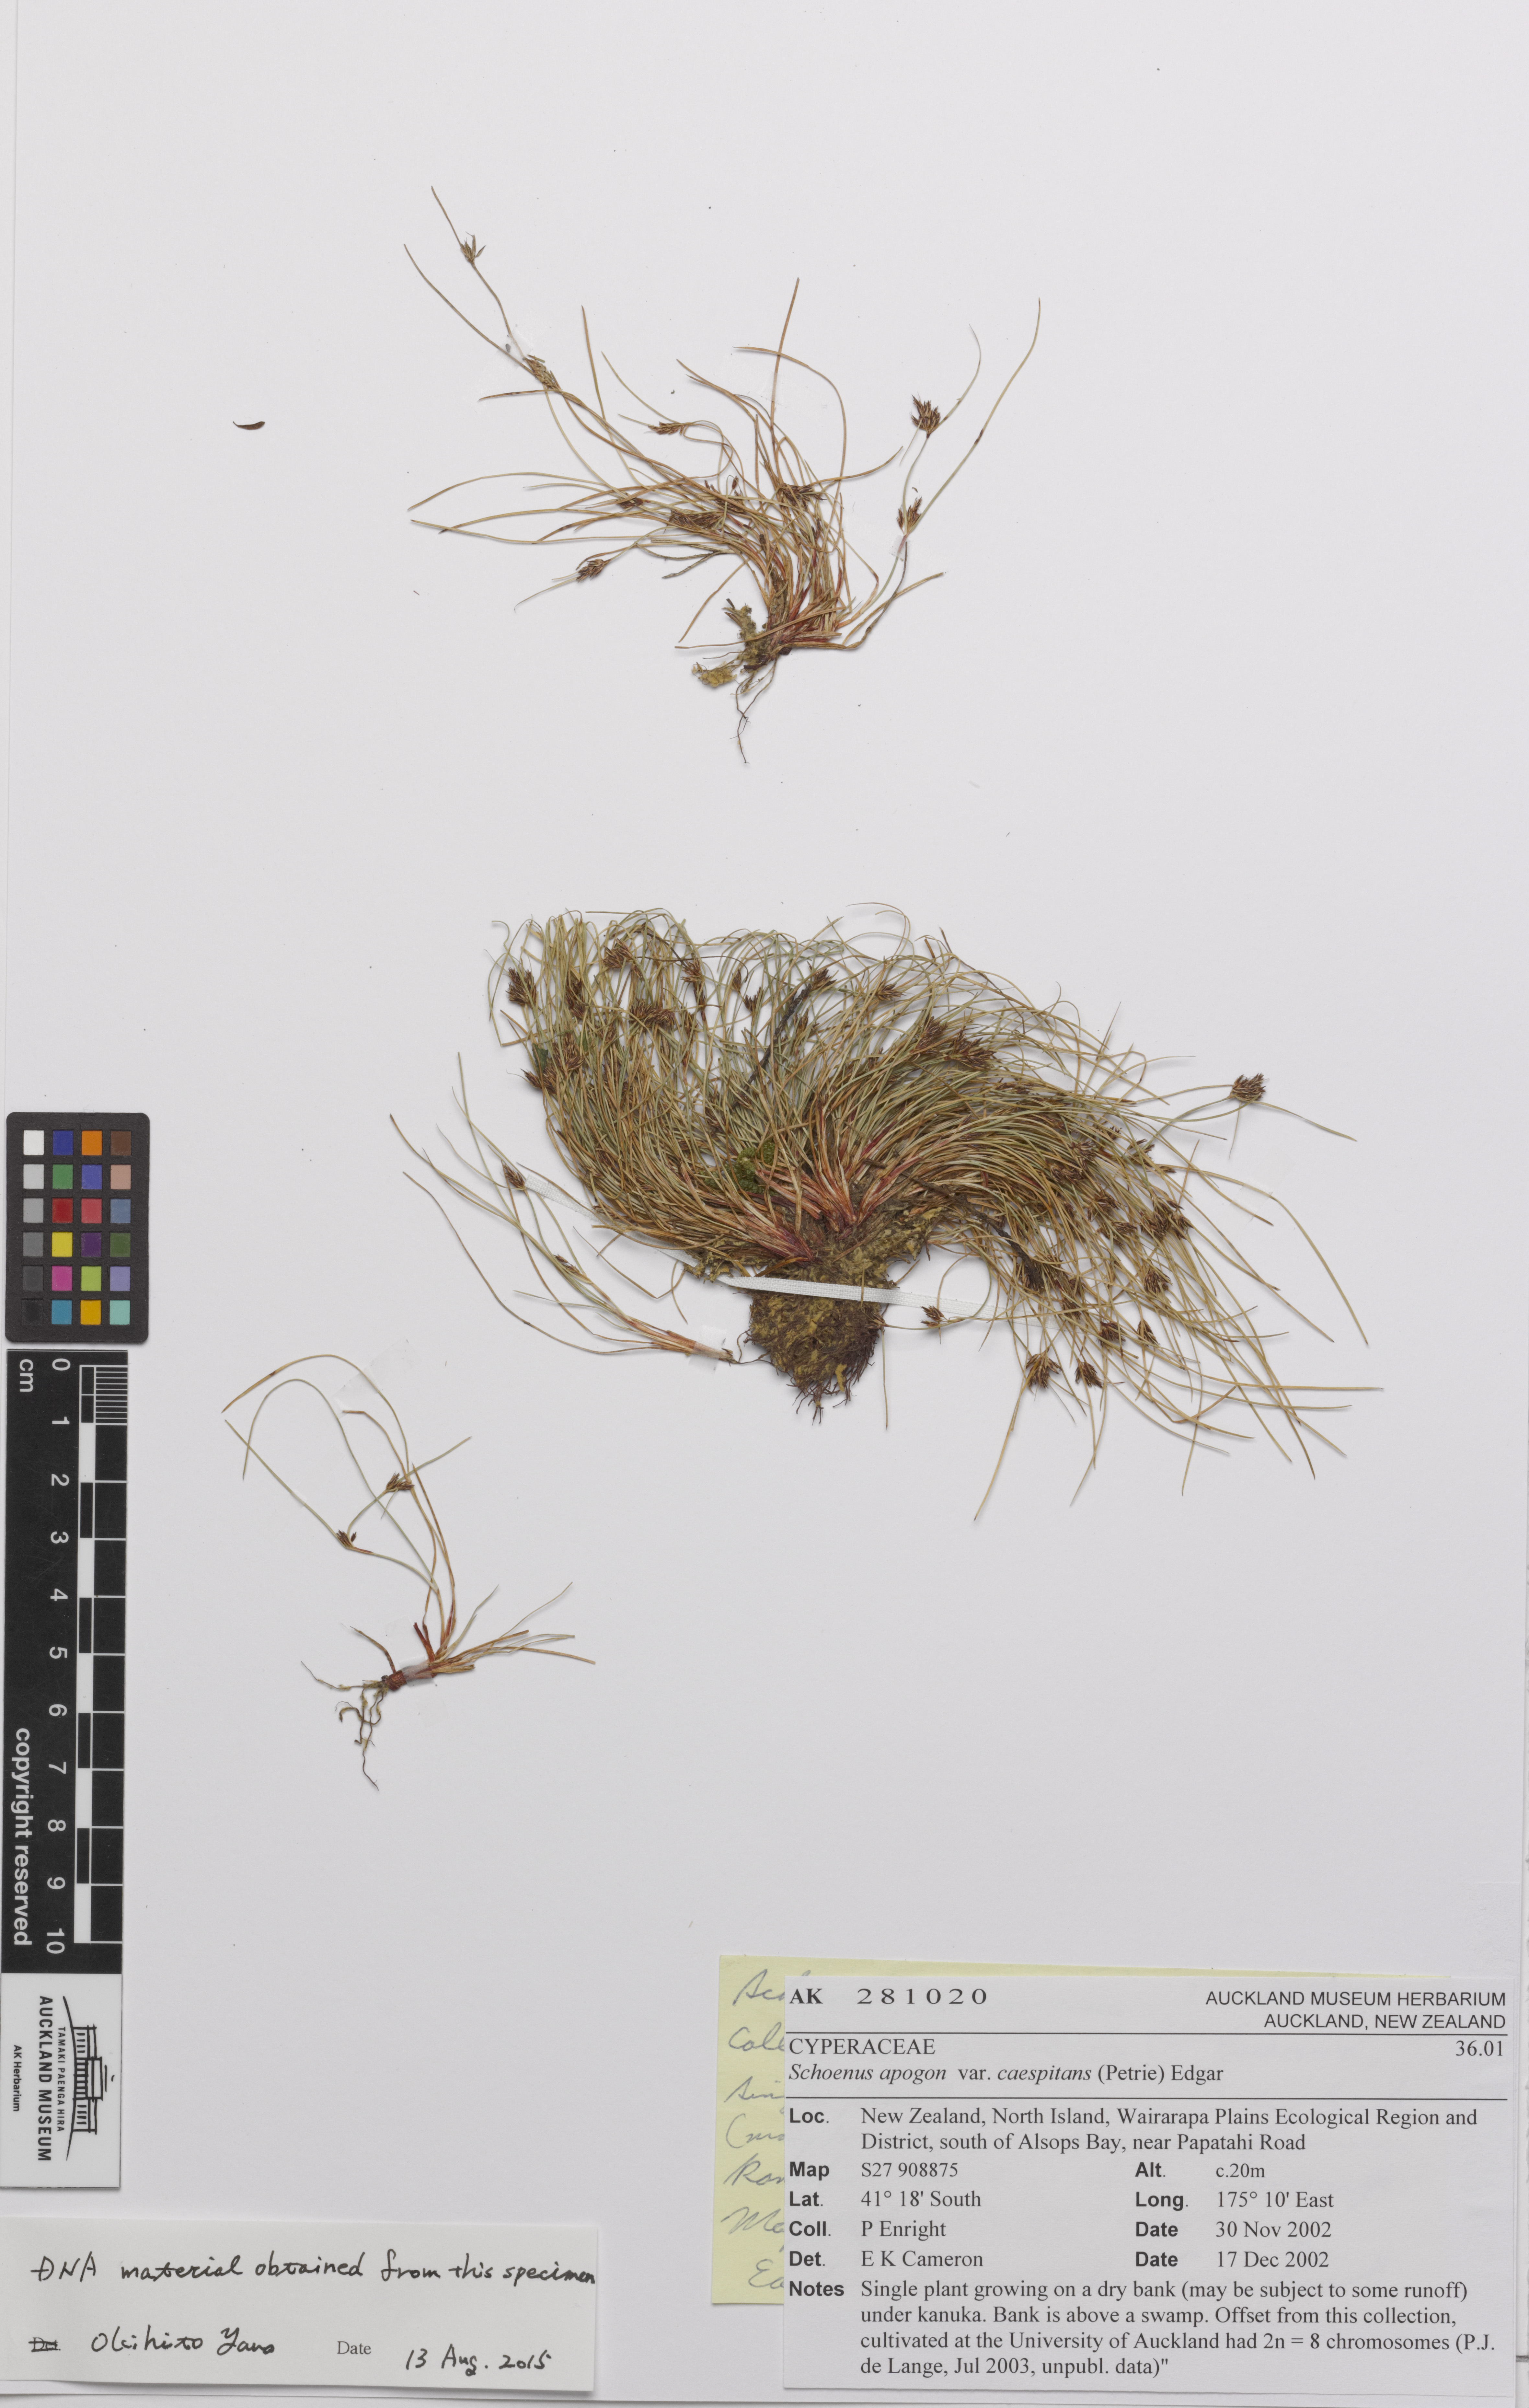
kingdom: Plantae
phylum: Tracheophyta
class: Liliopsida
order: Poales
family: Cyperaceae
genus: Schoenus
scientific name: Schoenus apogon
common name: Smooth bogrush
